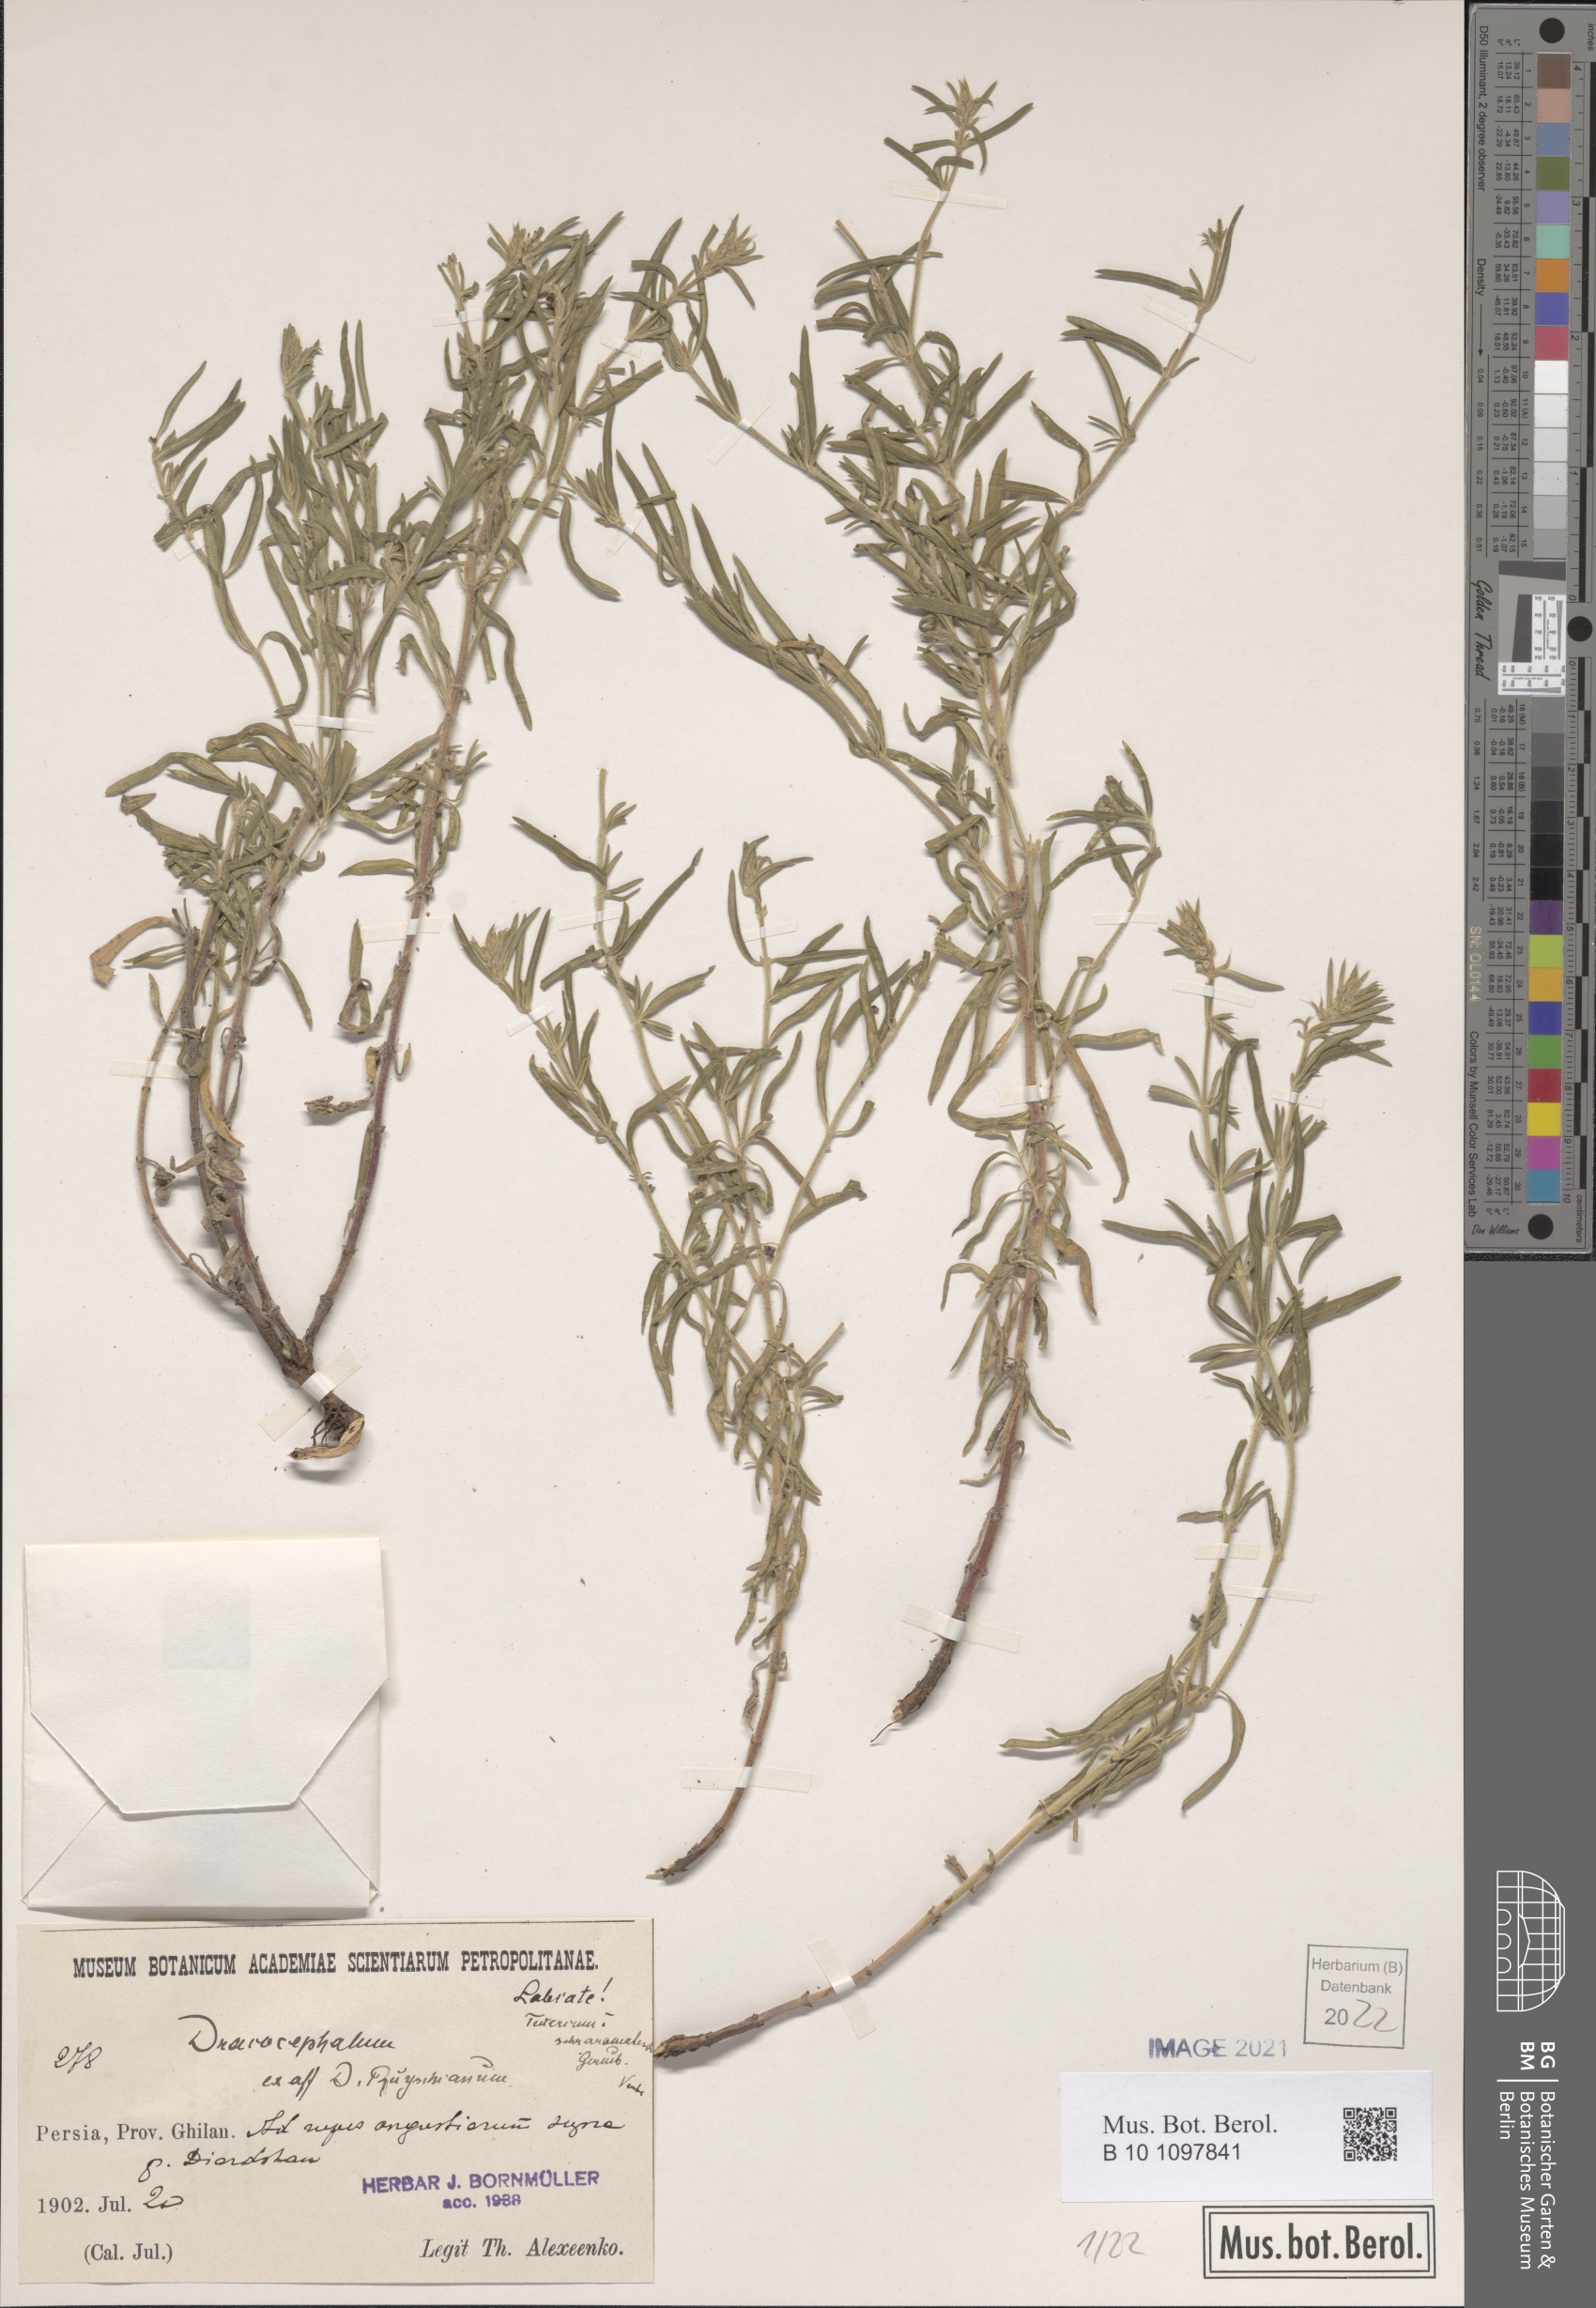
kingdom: Plantae
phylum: Tracheophyta
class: Magnoliopsida
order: Lamiales
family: Lamiaceae
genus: Dracocephalum
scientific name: Dracocephalum
